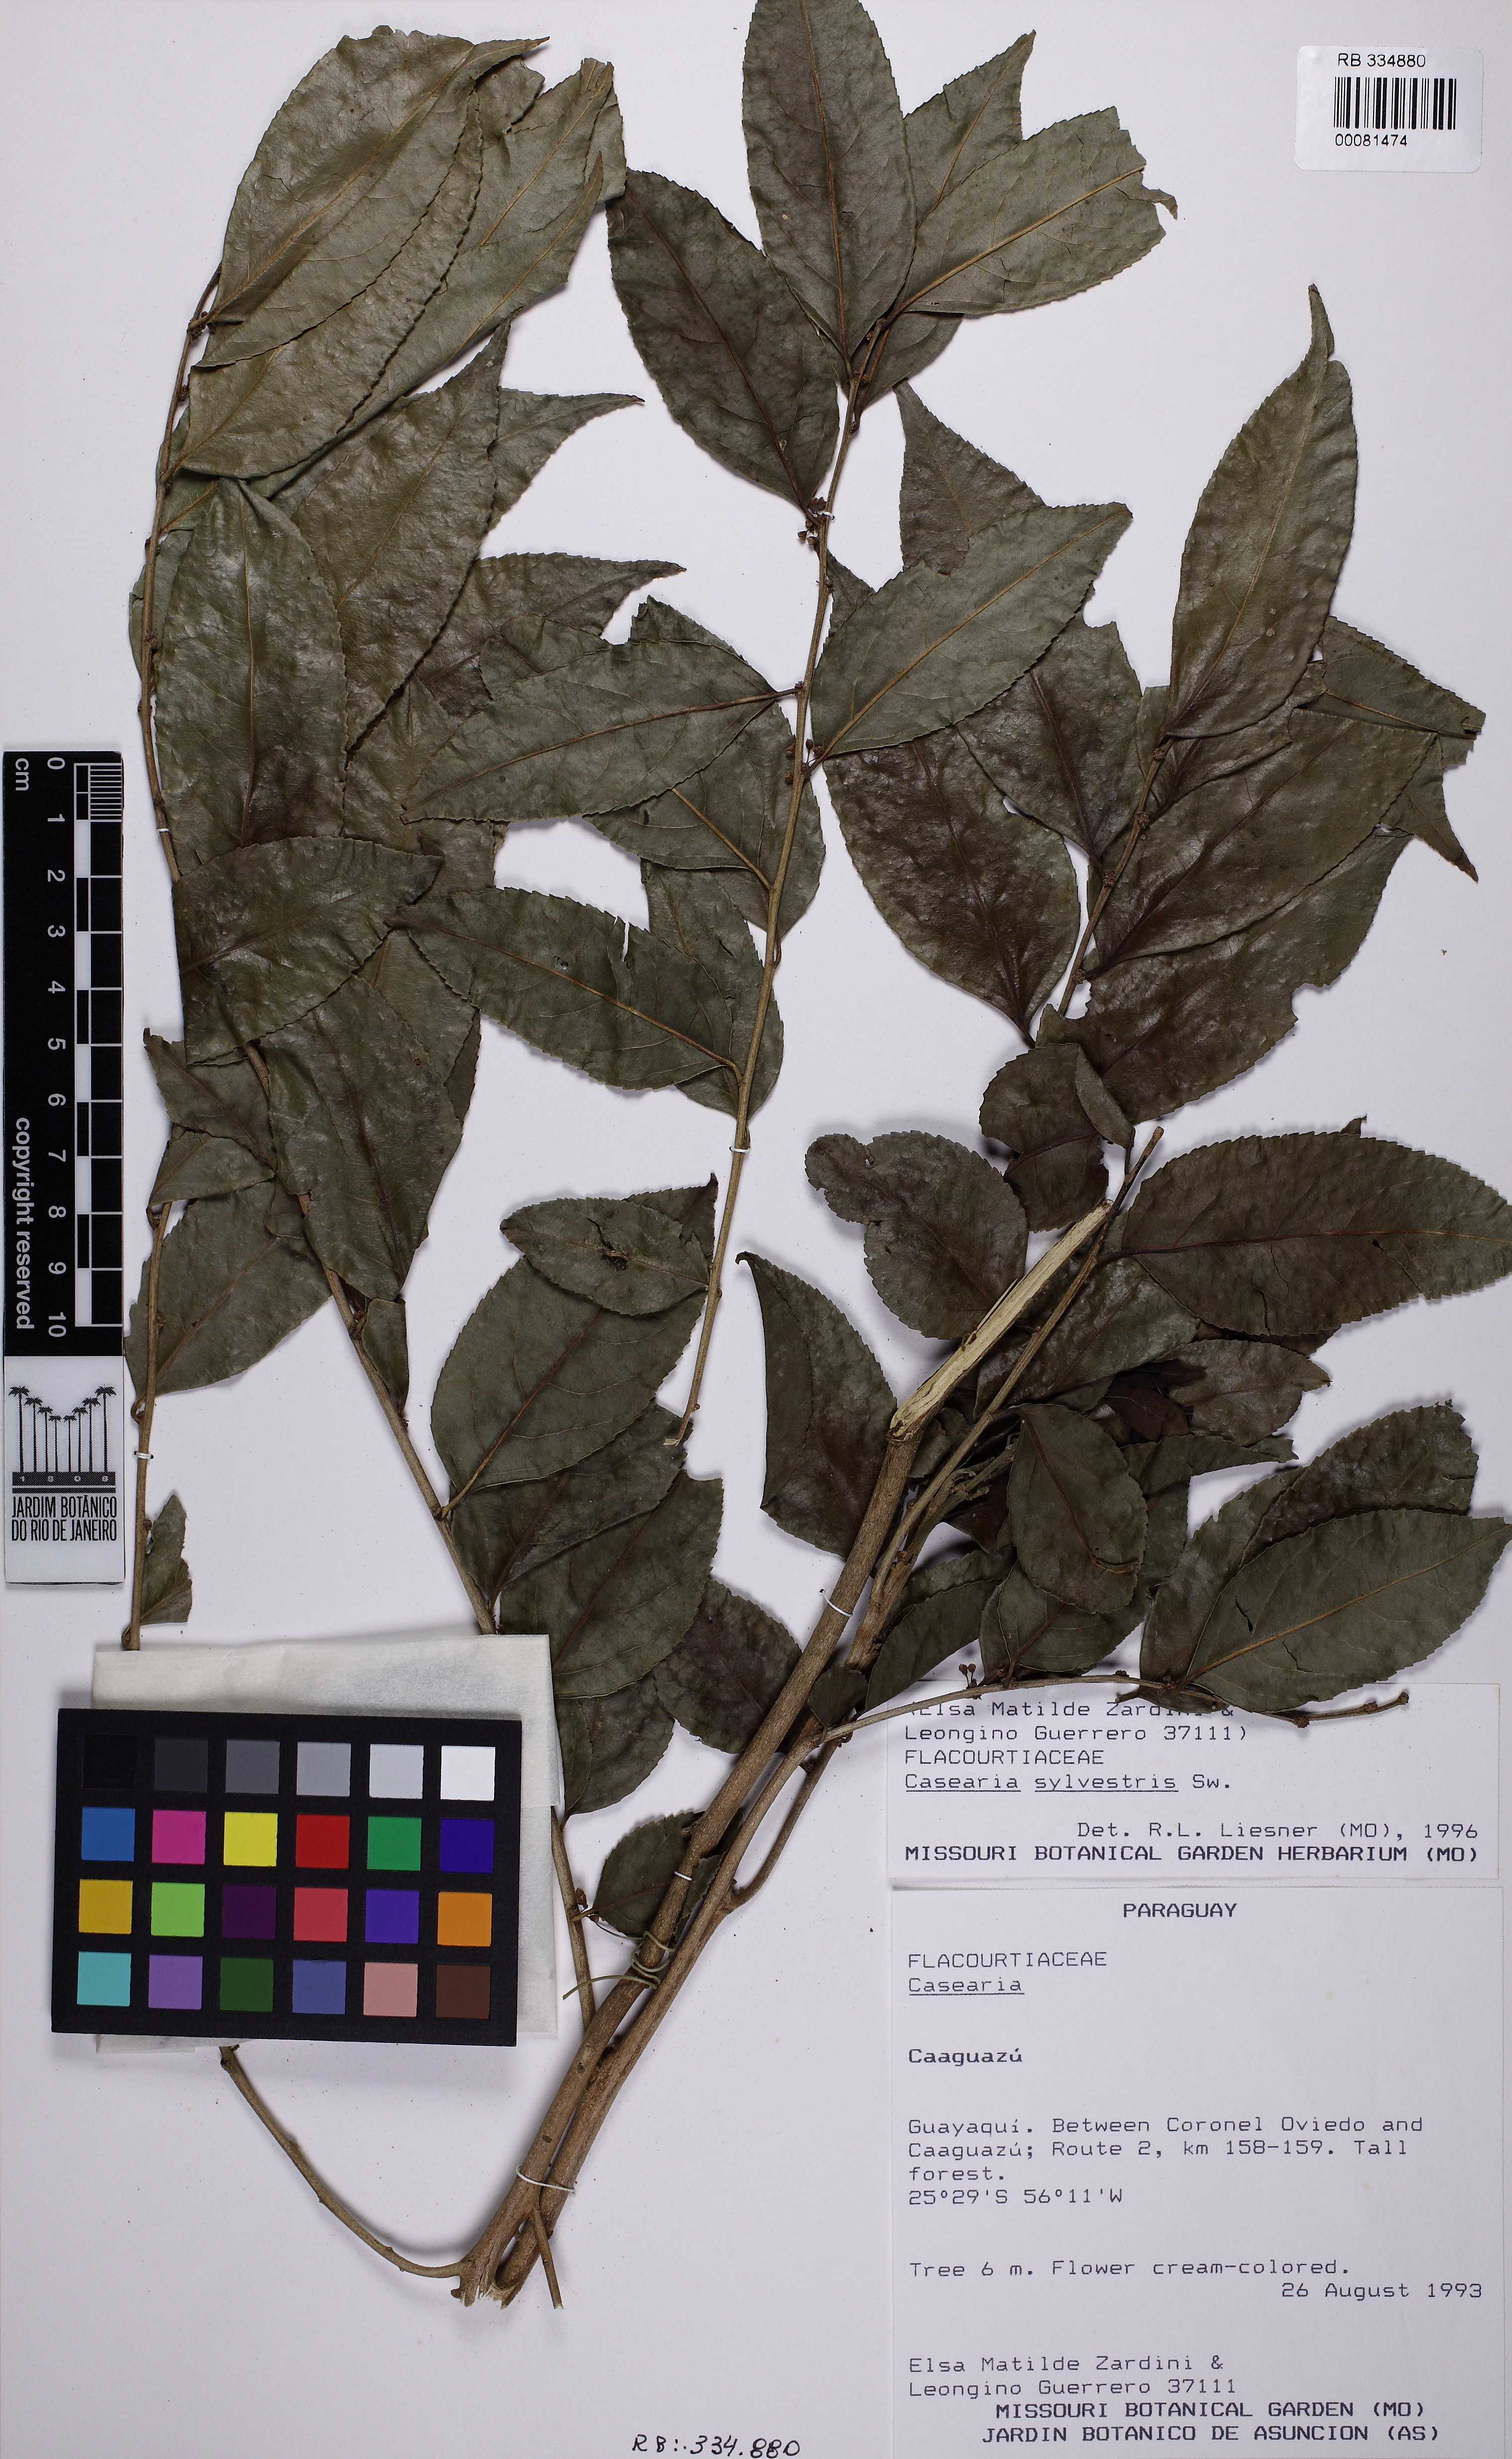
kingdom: Plantae
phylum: Tracheophyta
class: Magnoliopsida
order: Malpighiales
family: Salicaceae
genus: Casearia
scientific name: Casearia sylvestris
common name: Wild sage
